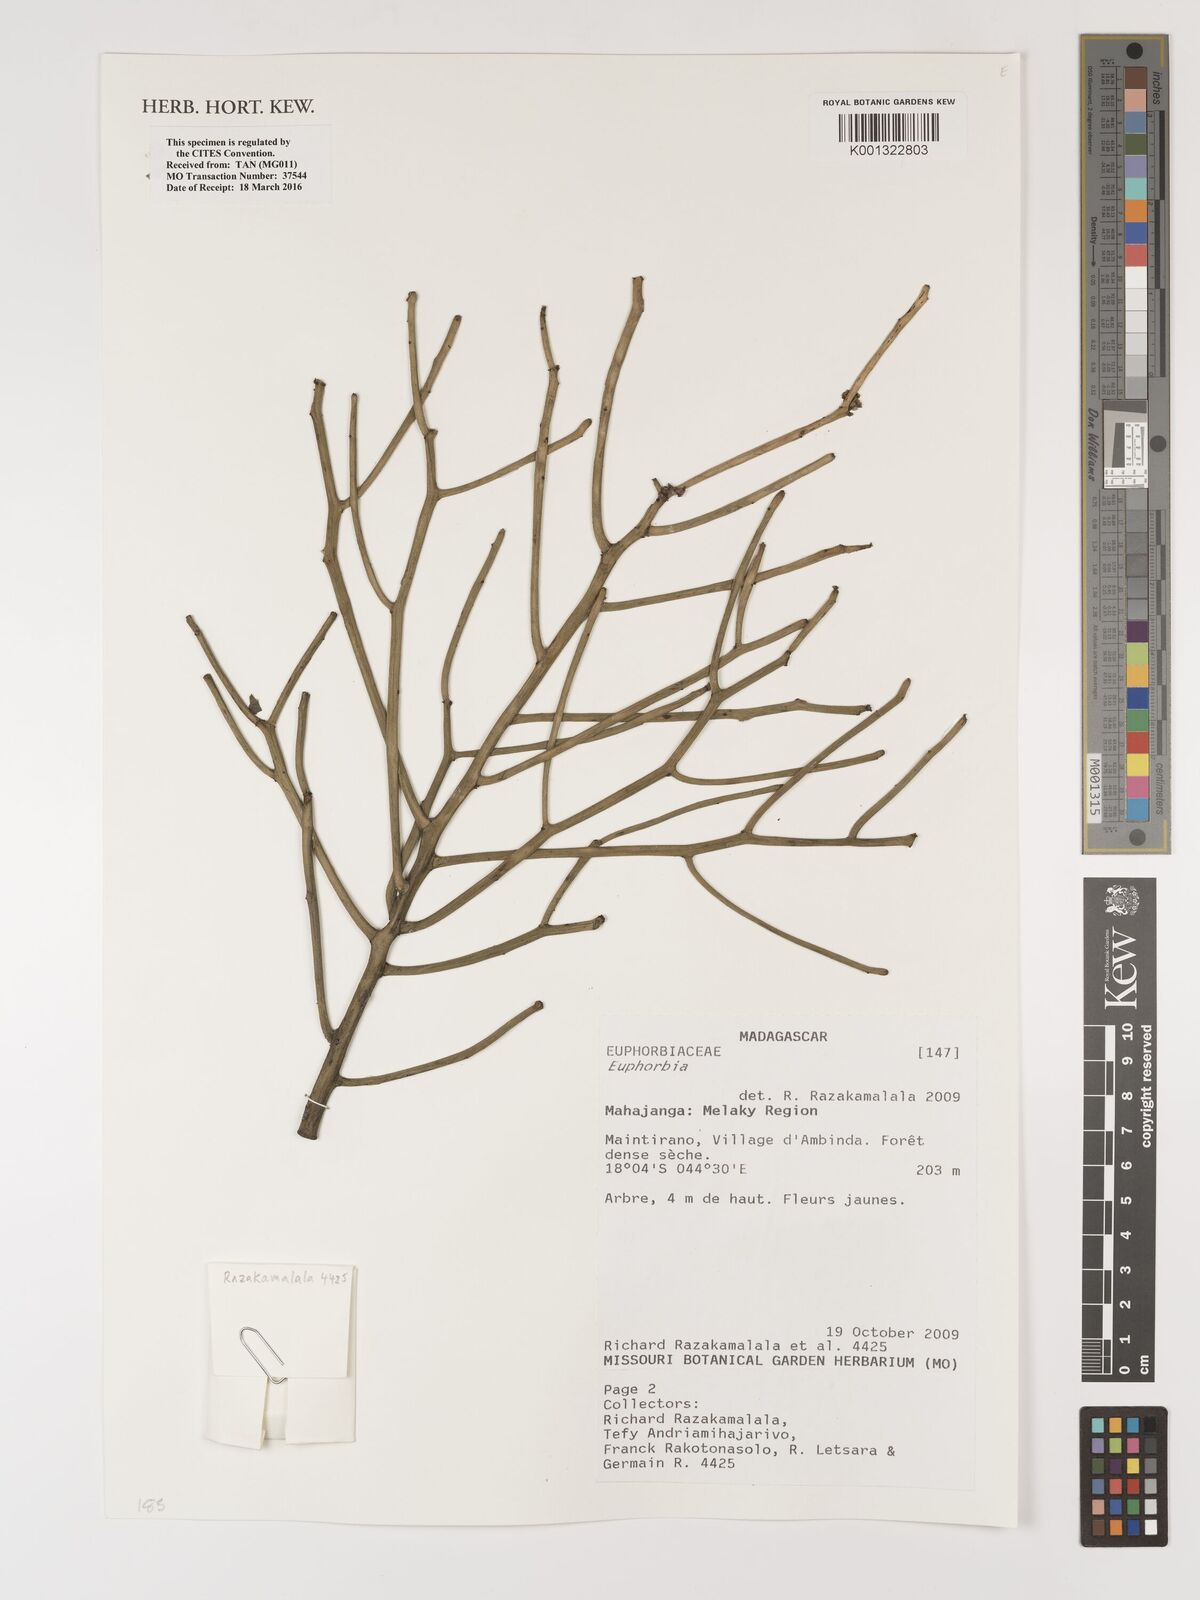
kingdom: Plantae
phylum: Tracheophyta
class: Magnoliopsida
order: Malpighiales
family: Euphorbiaceae
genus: Euphorbia
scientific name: Euphorbia
